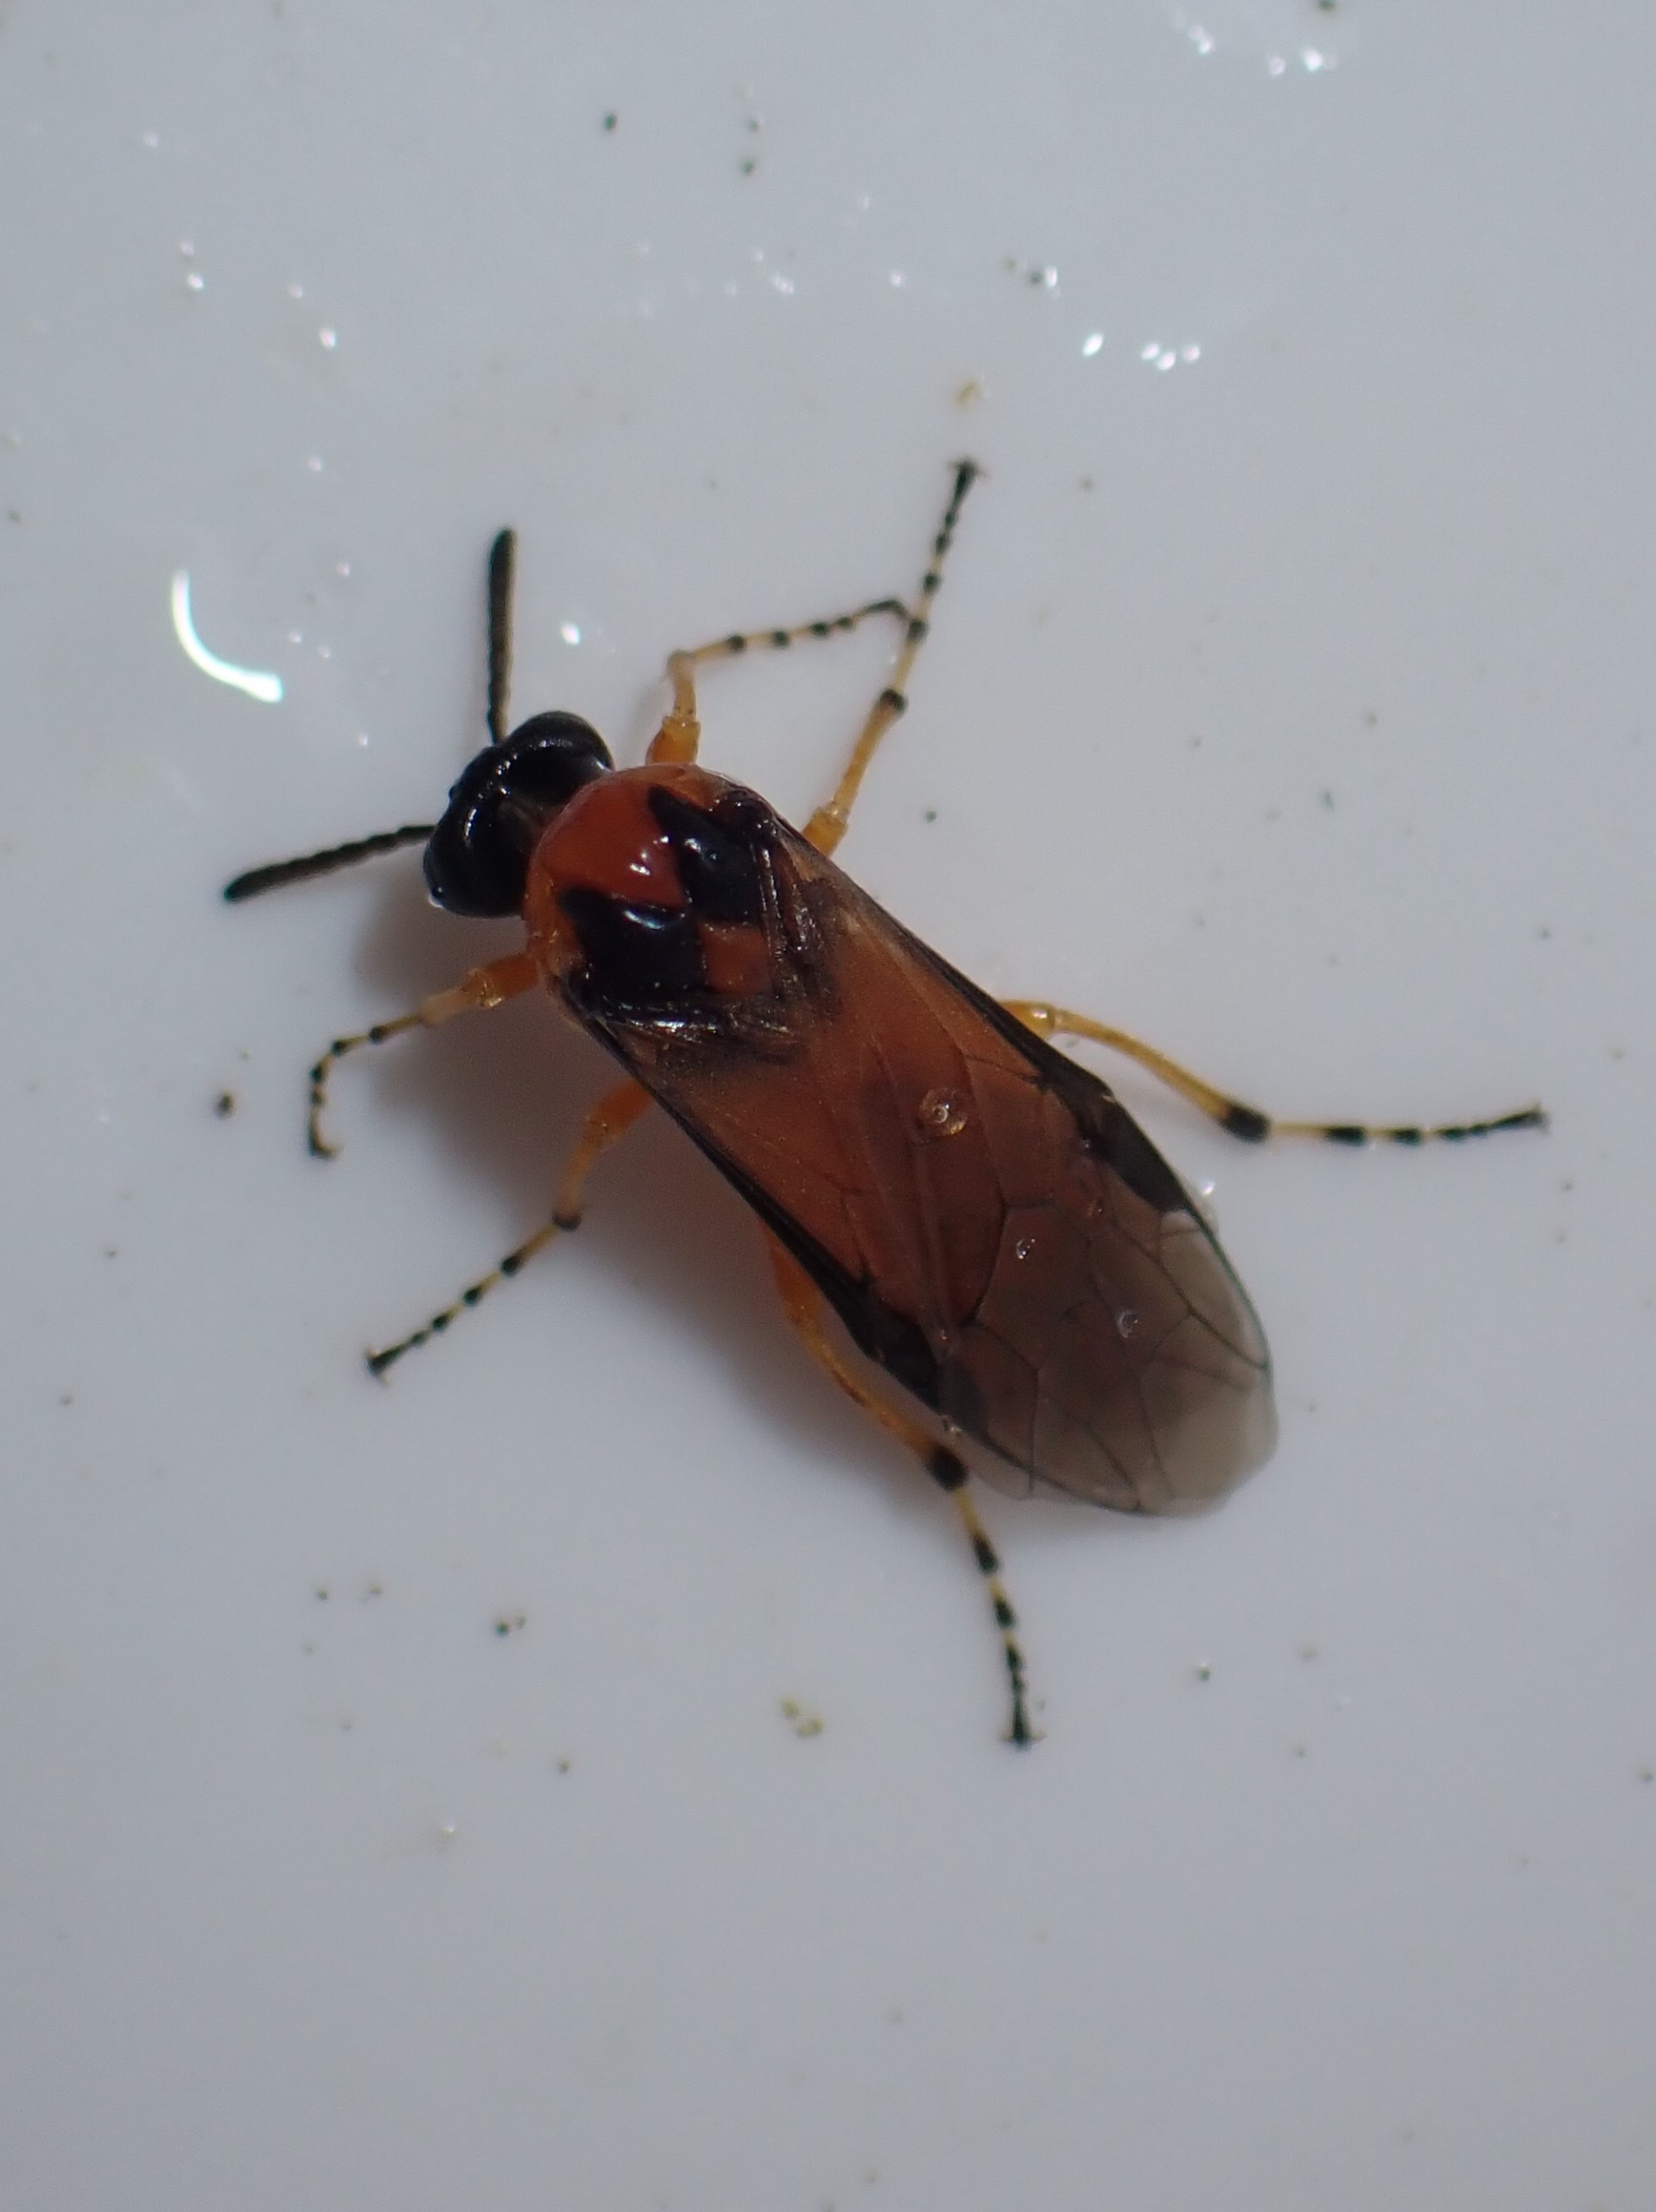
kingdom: Animalia
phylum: Arthropoda
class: Insecta
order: Hymenoptera
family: Tenthredinidae
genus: Athalia
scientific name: Athalia rosae
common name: Kålbladhveps
